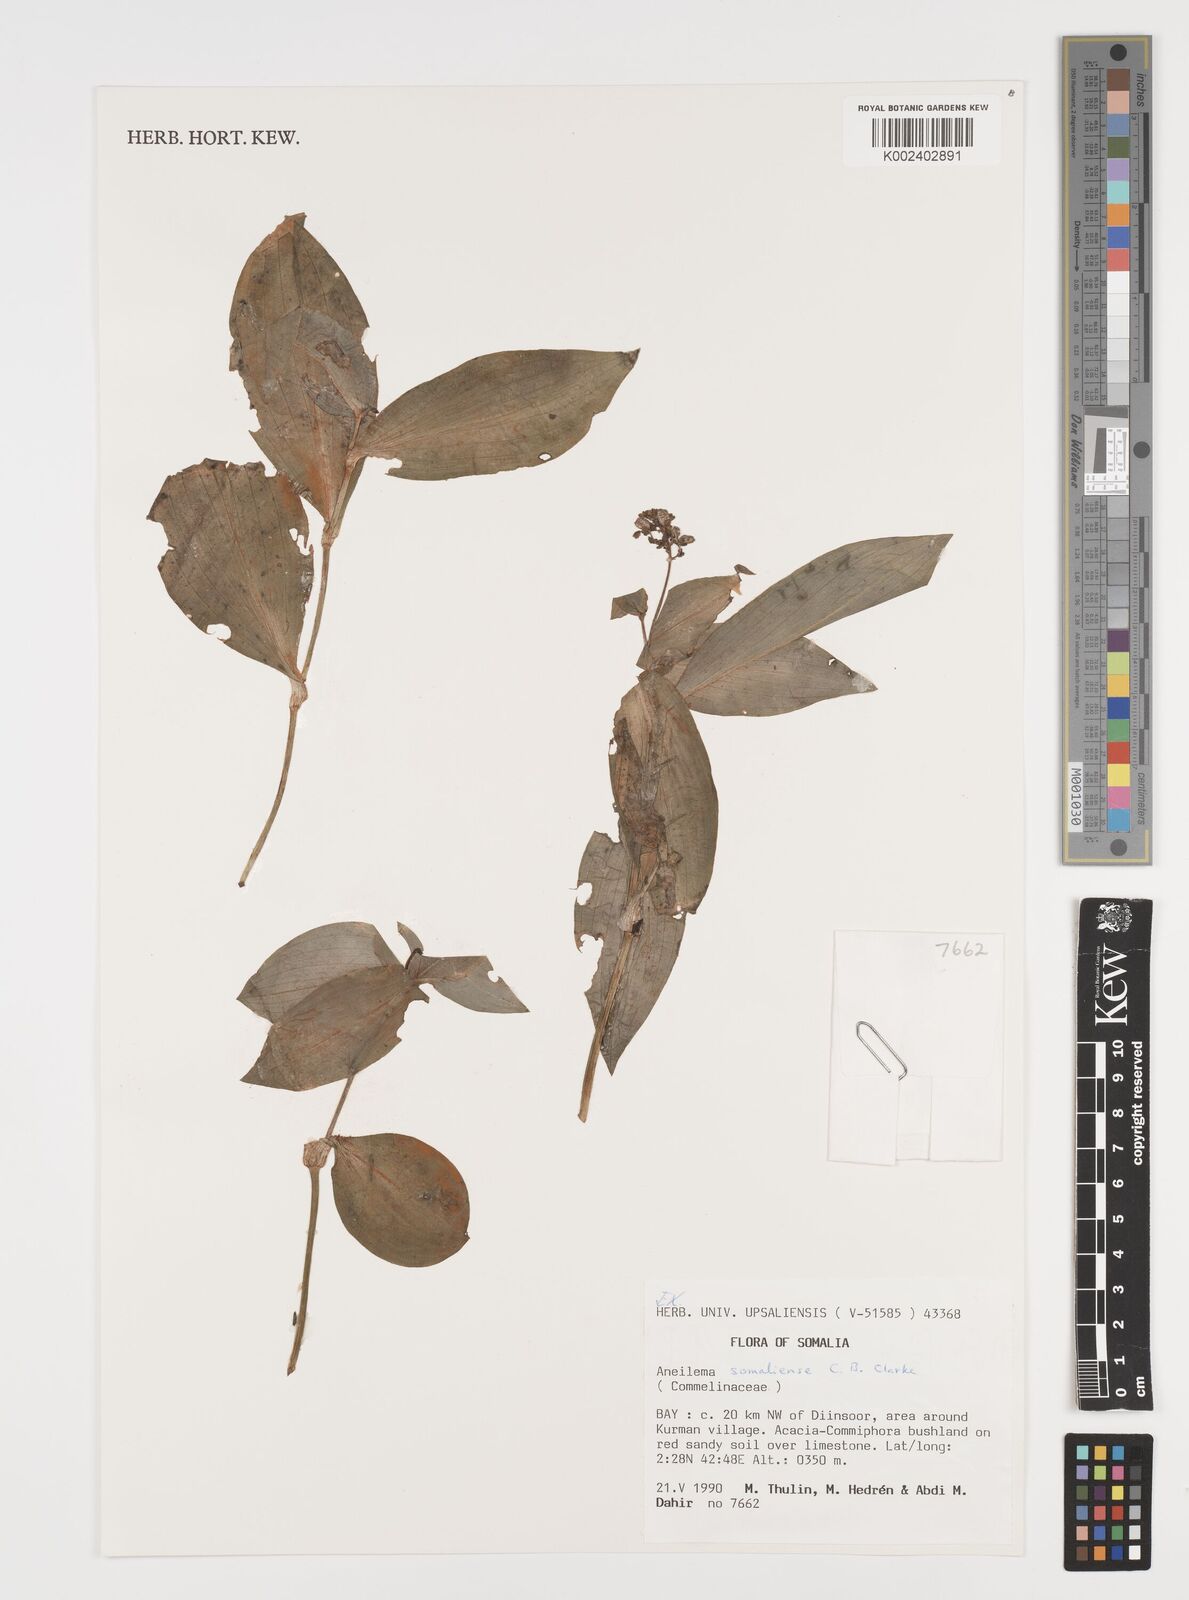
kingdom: Plantae
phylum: Tracheophyta
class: Liliopsida
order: Commelinales
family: Commelinaceae
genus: Aneilema
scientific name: Aneilema somaliense
